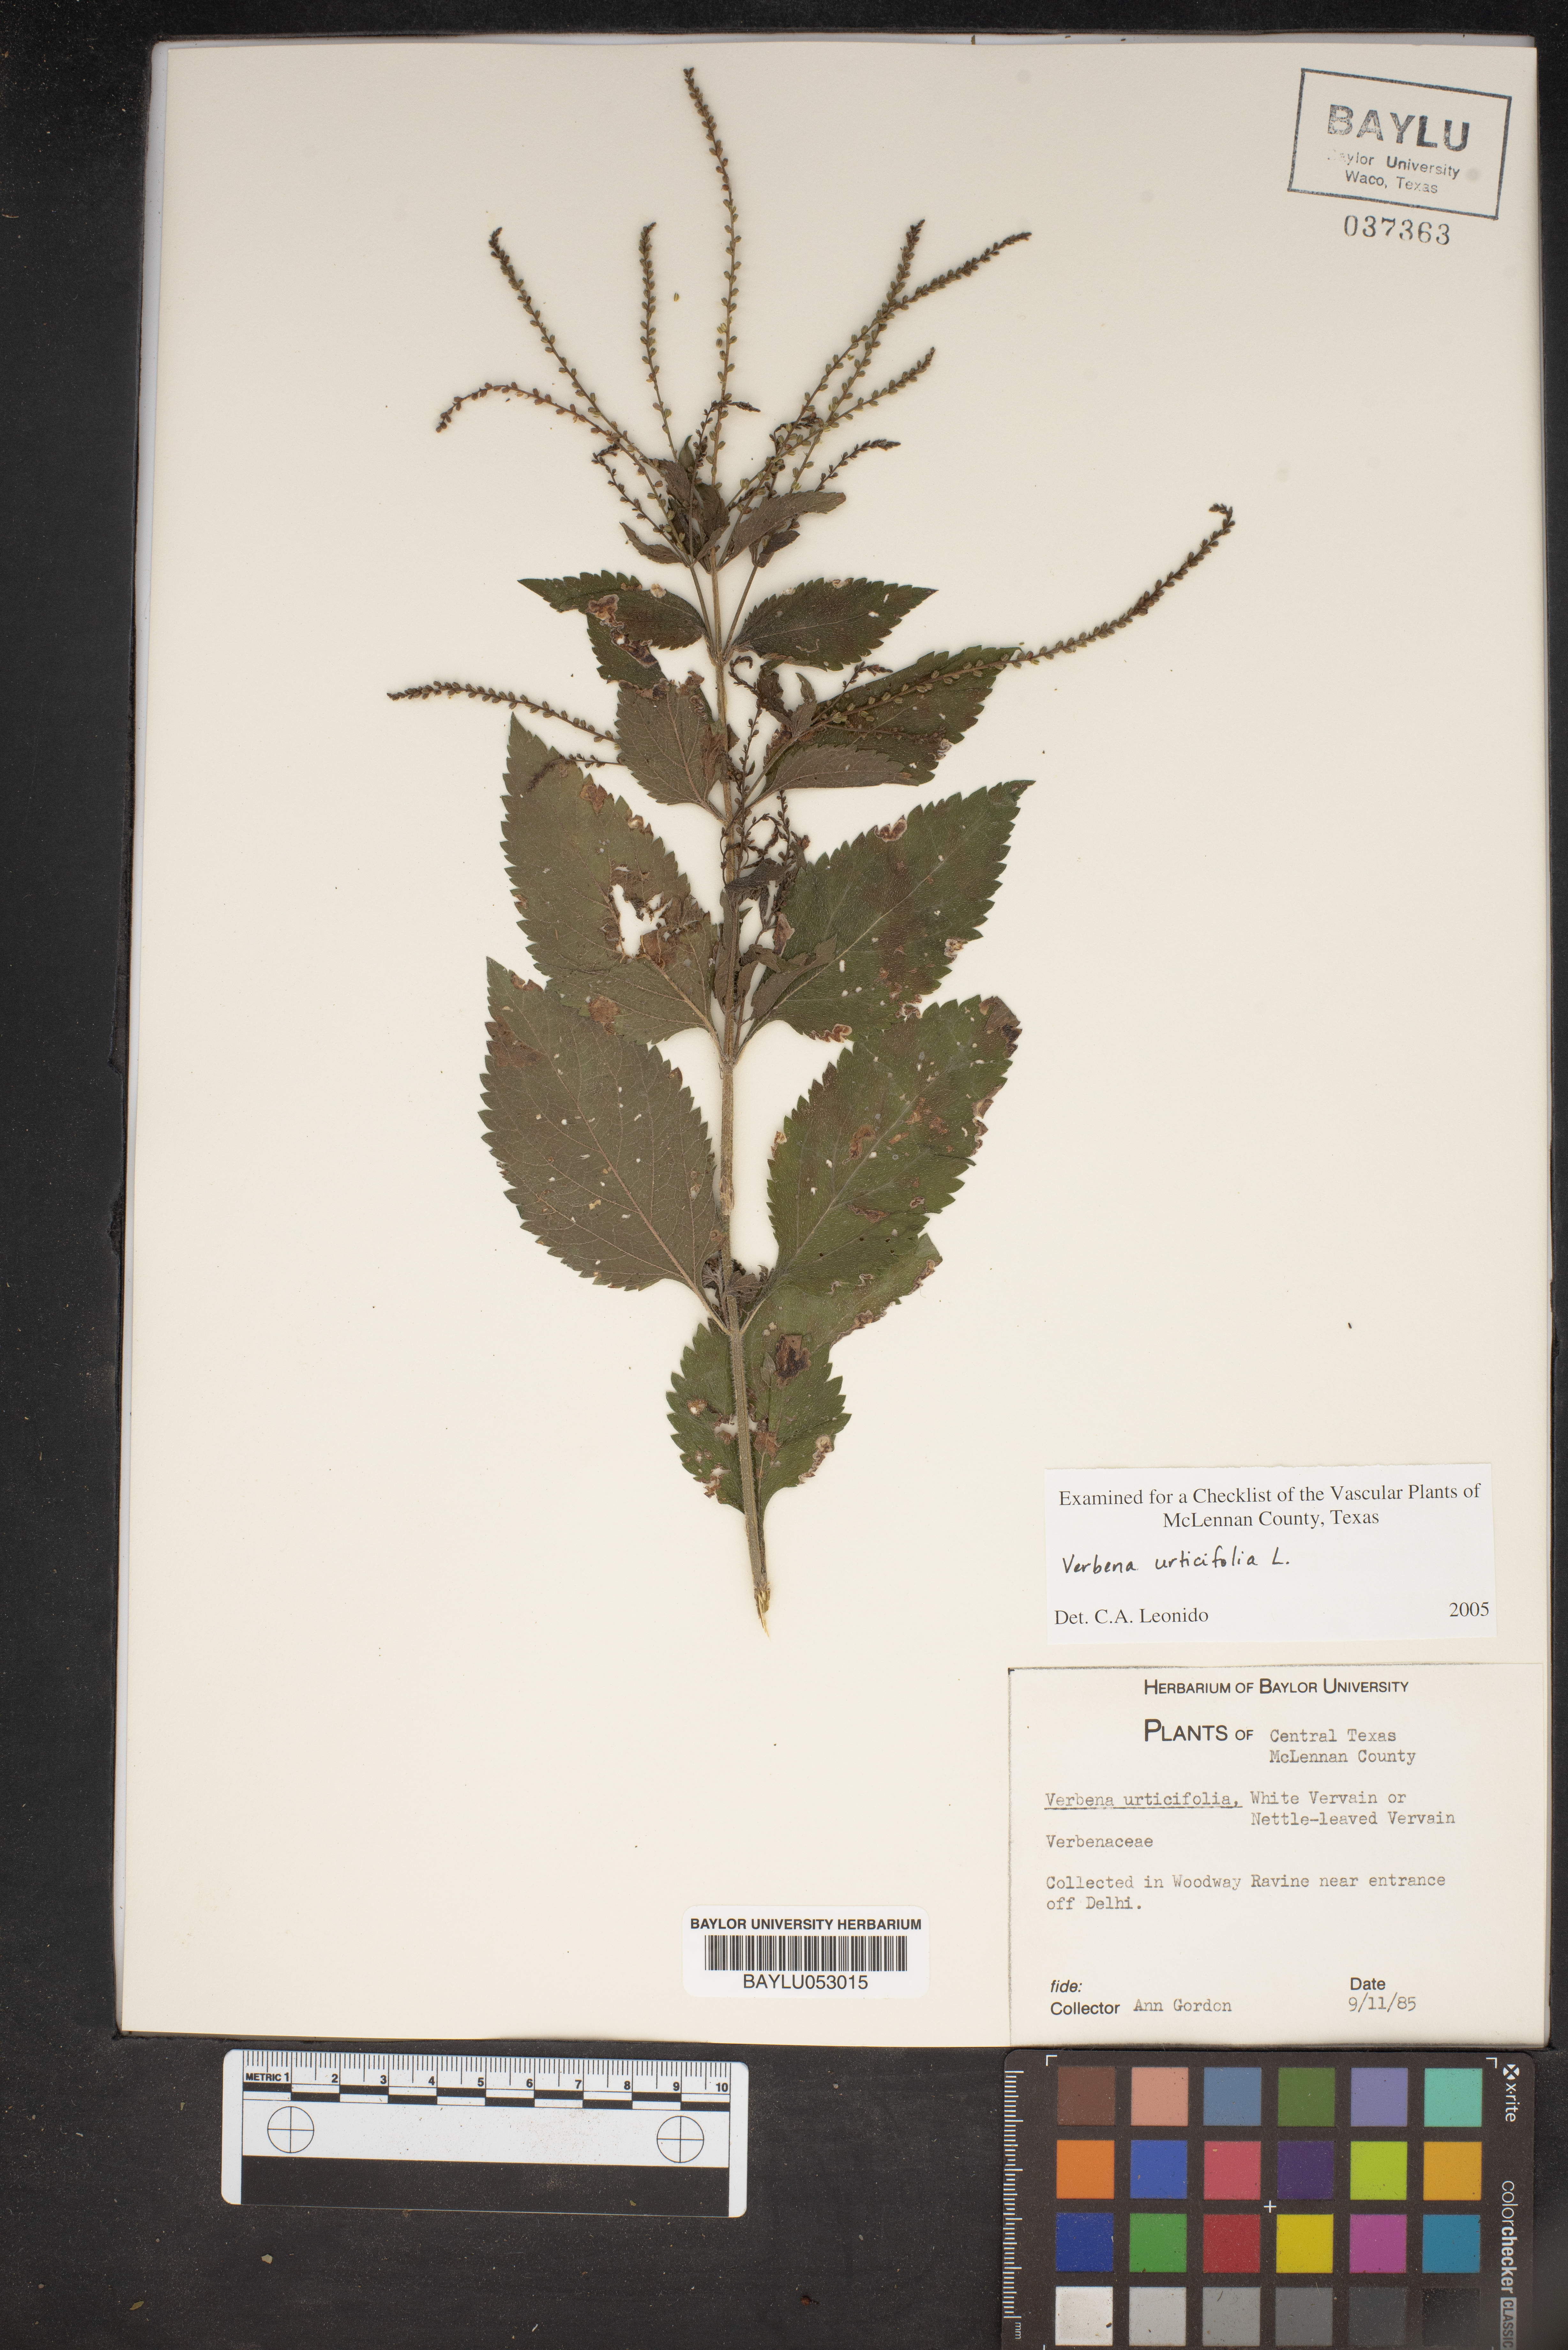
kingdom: Plantae
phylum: Tracheophyta
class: Magnoliopsida
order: Lamiales
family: Verbenaceae
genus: Verbena
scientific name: Verbena urticifolia
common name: Nettle-leaved vervain
